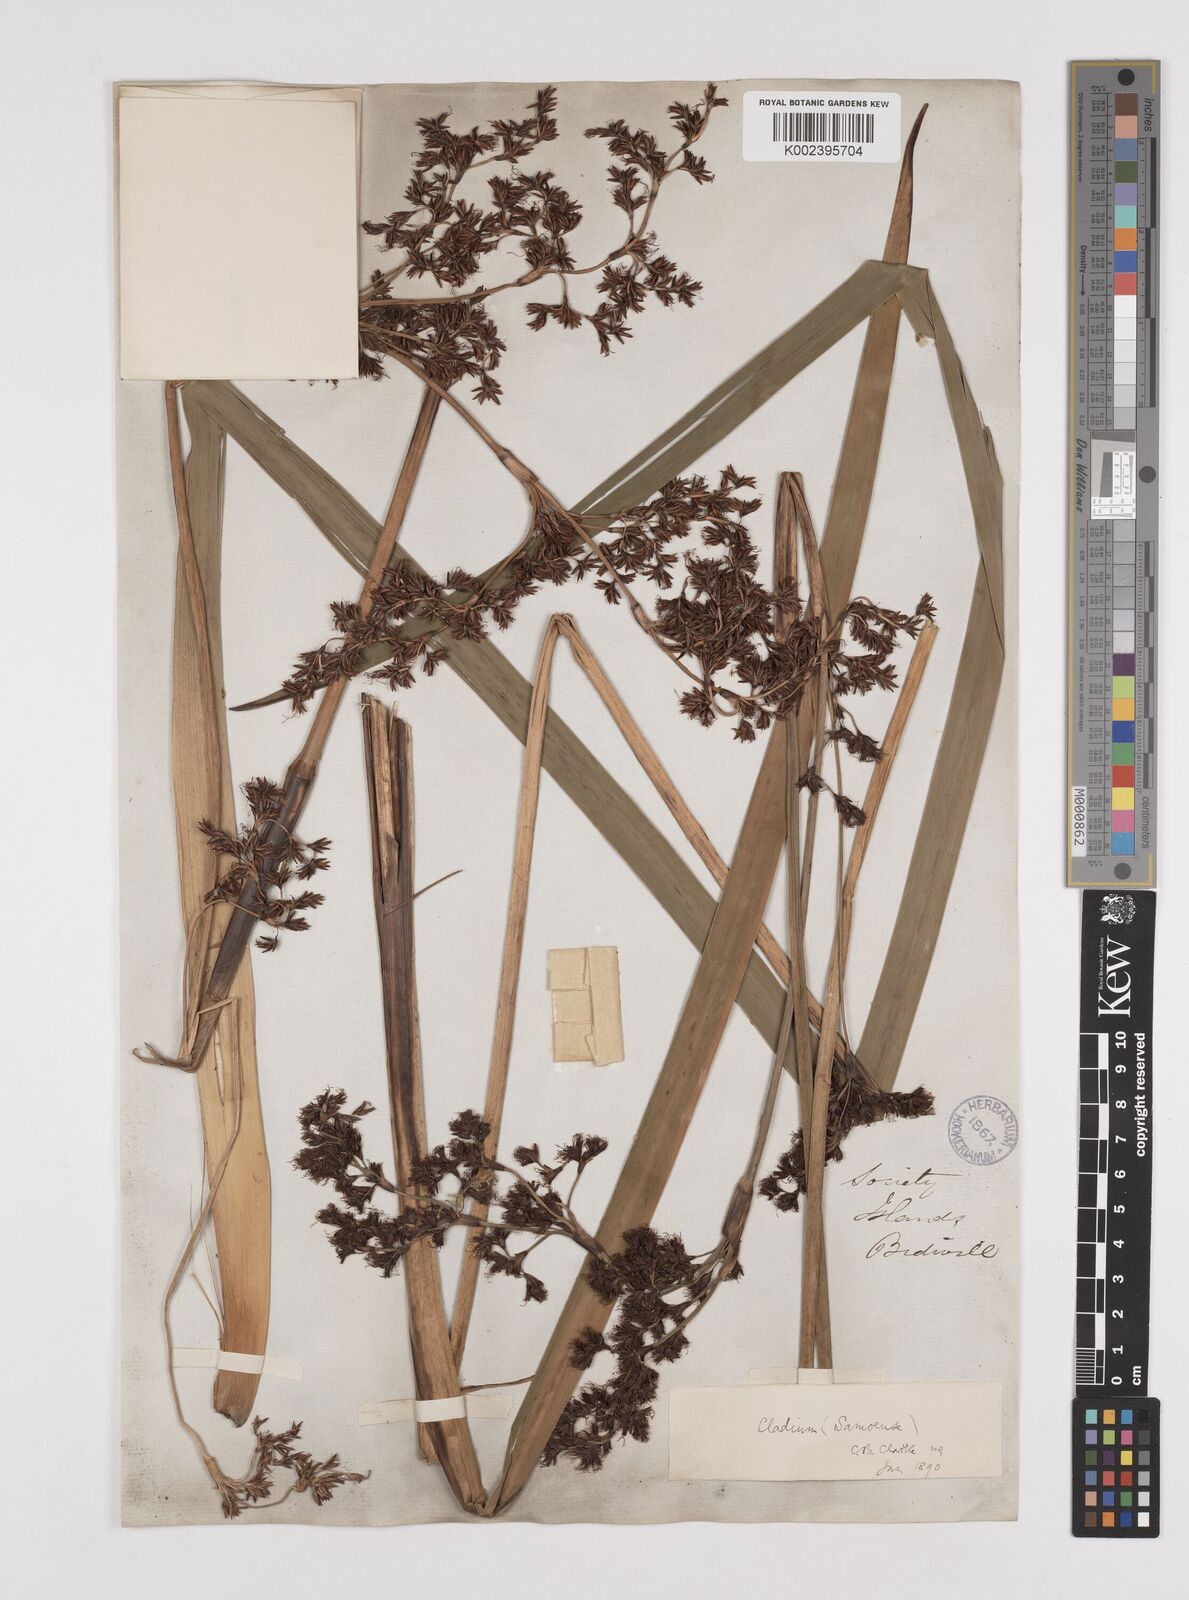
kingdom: Plantae
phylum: Tracheophyta
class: Liliopsida
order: Poales
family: Cyperaceae
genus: Machaerina
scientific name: Machaerina falcata
